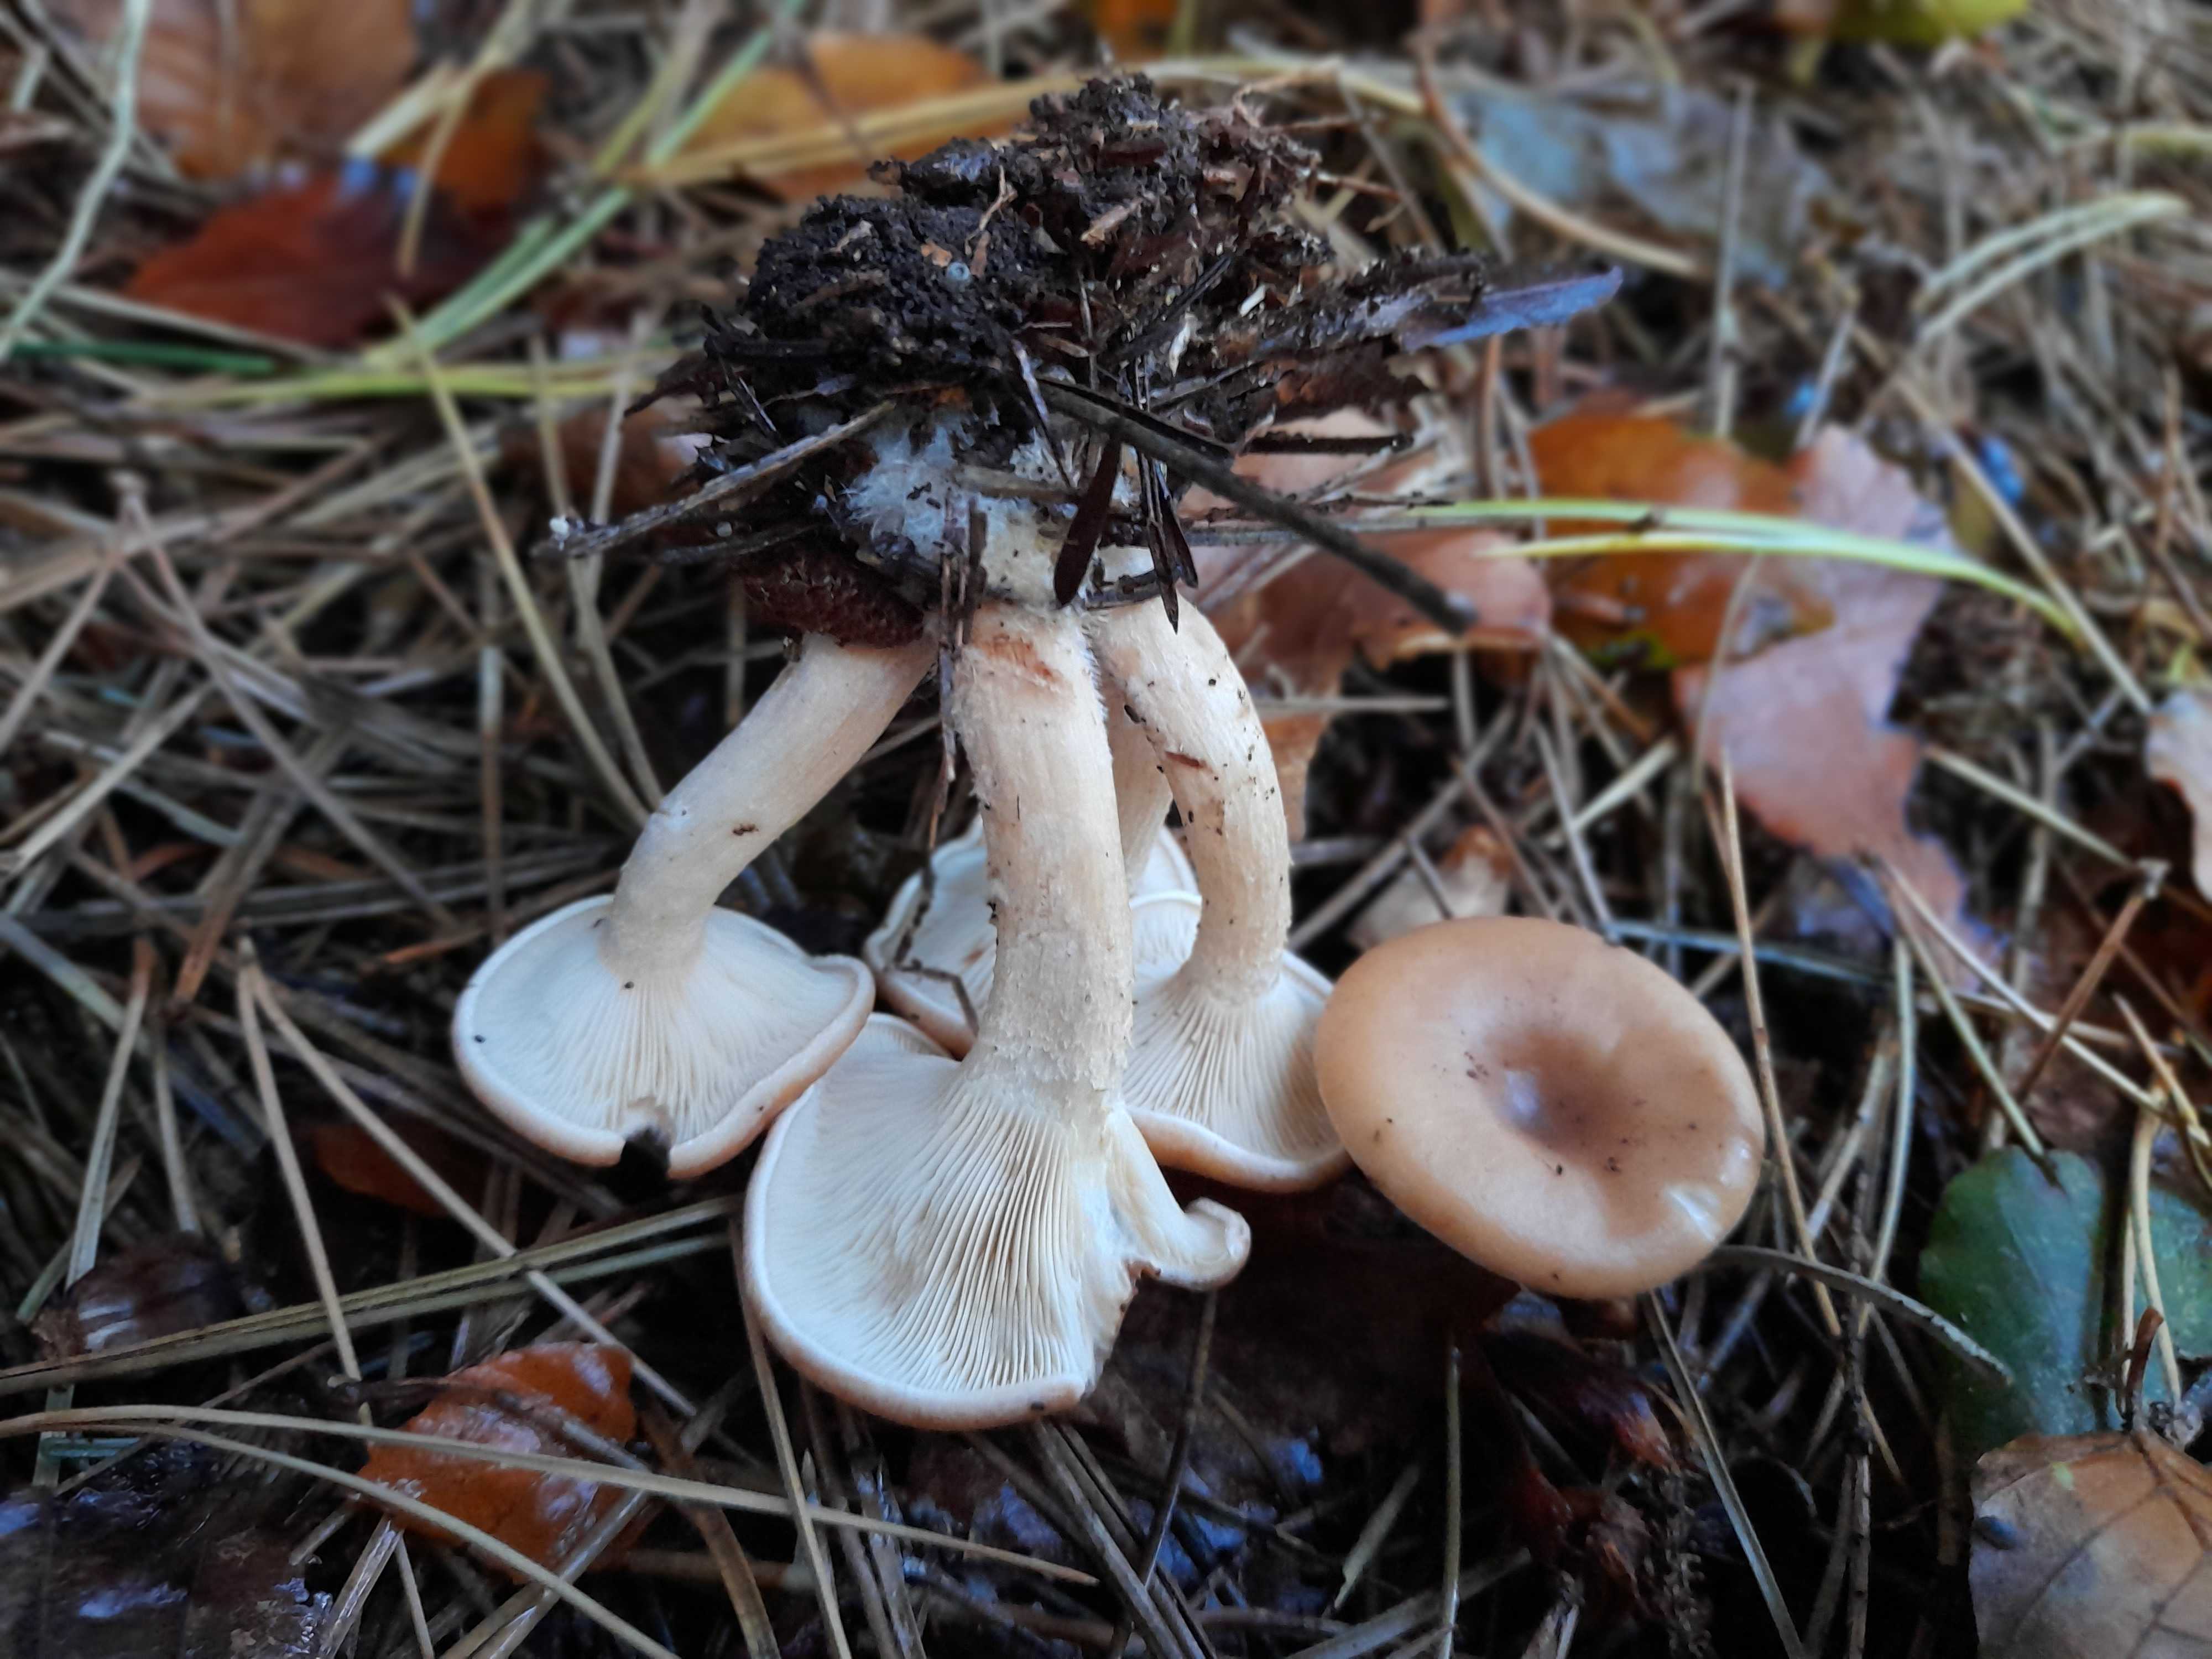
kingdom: Fungi
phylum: Basidiomycota
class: Agaricomycetes
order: Agaricales
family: Tricholomataceae
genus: Paralepista
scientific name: Paralepista flaccida
